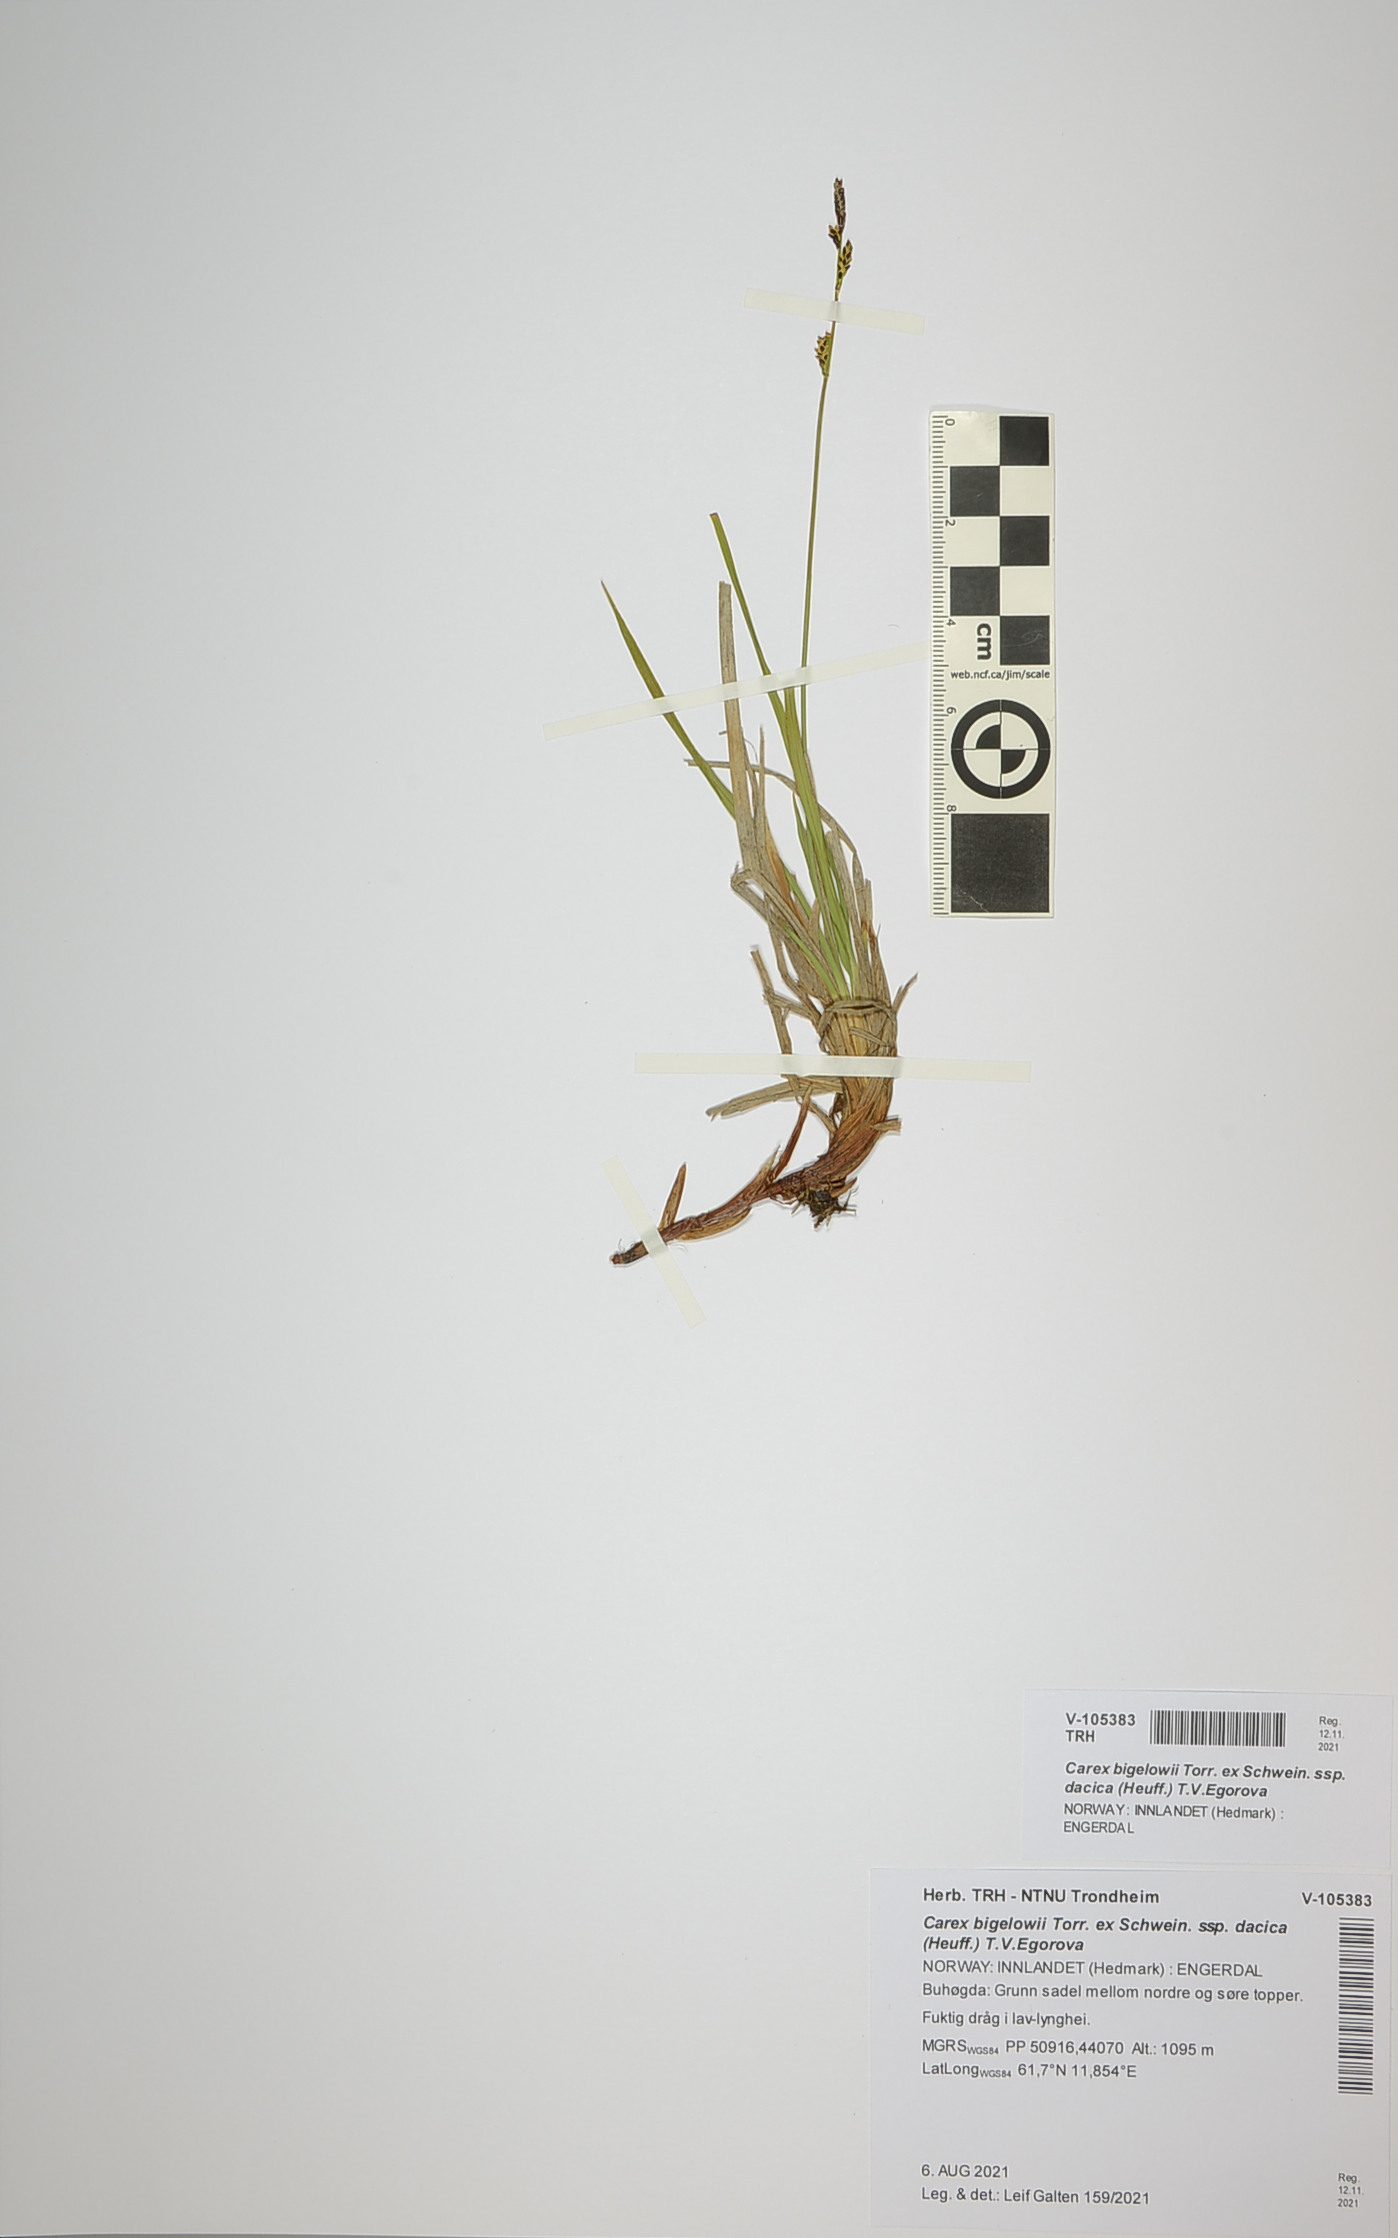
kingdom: Plantae
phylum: Tracheophyta
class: Liliopsida
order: Poales
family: Cyperaceae
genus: Carex
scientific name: Carex dacica
